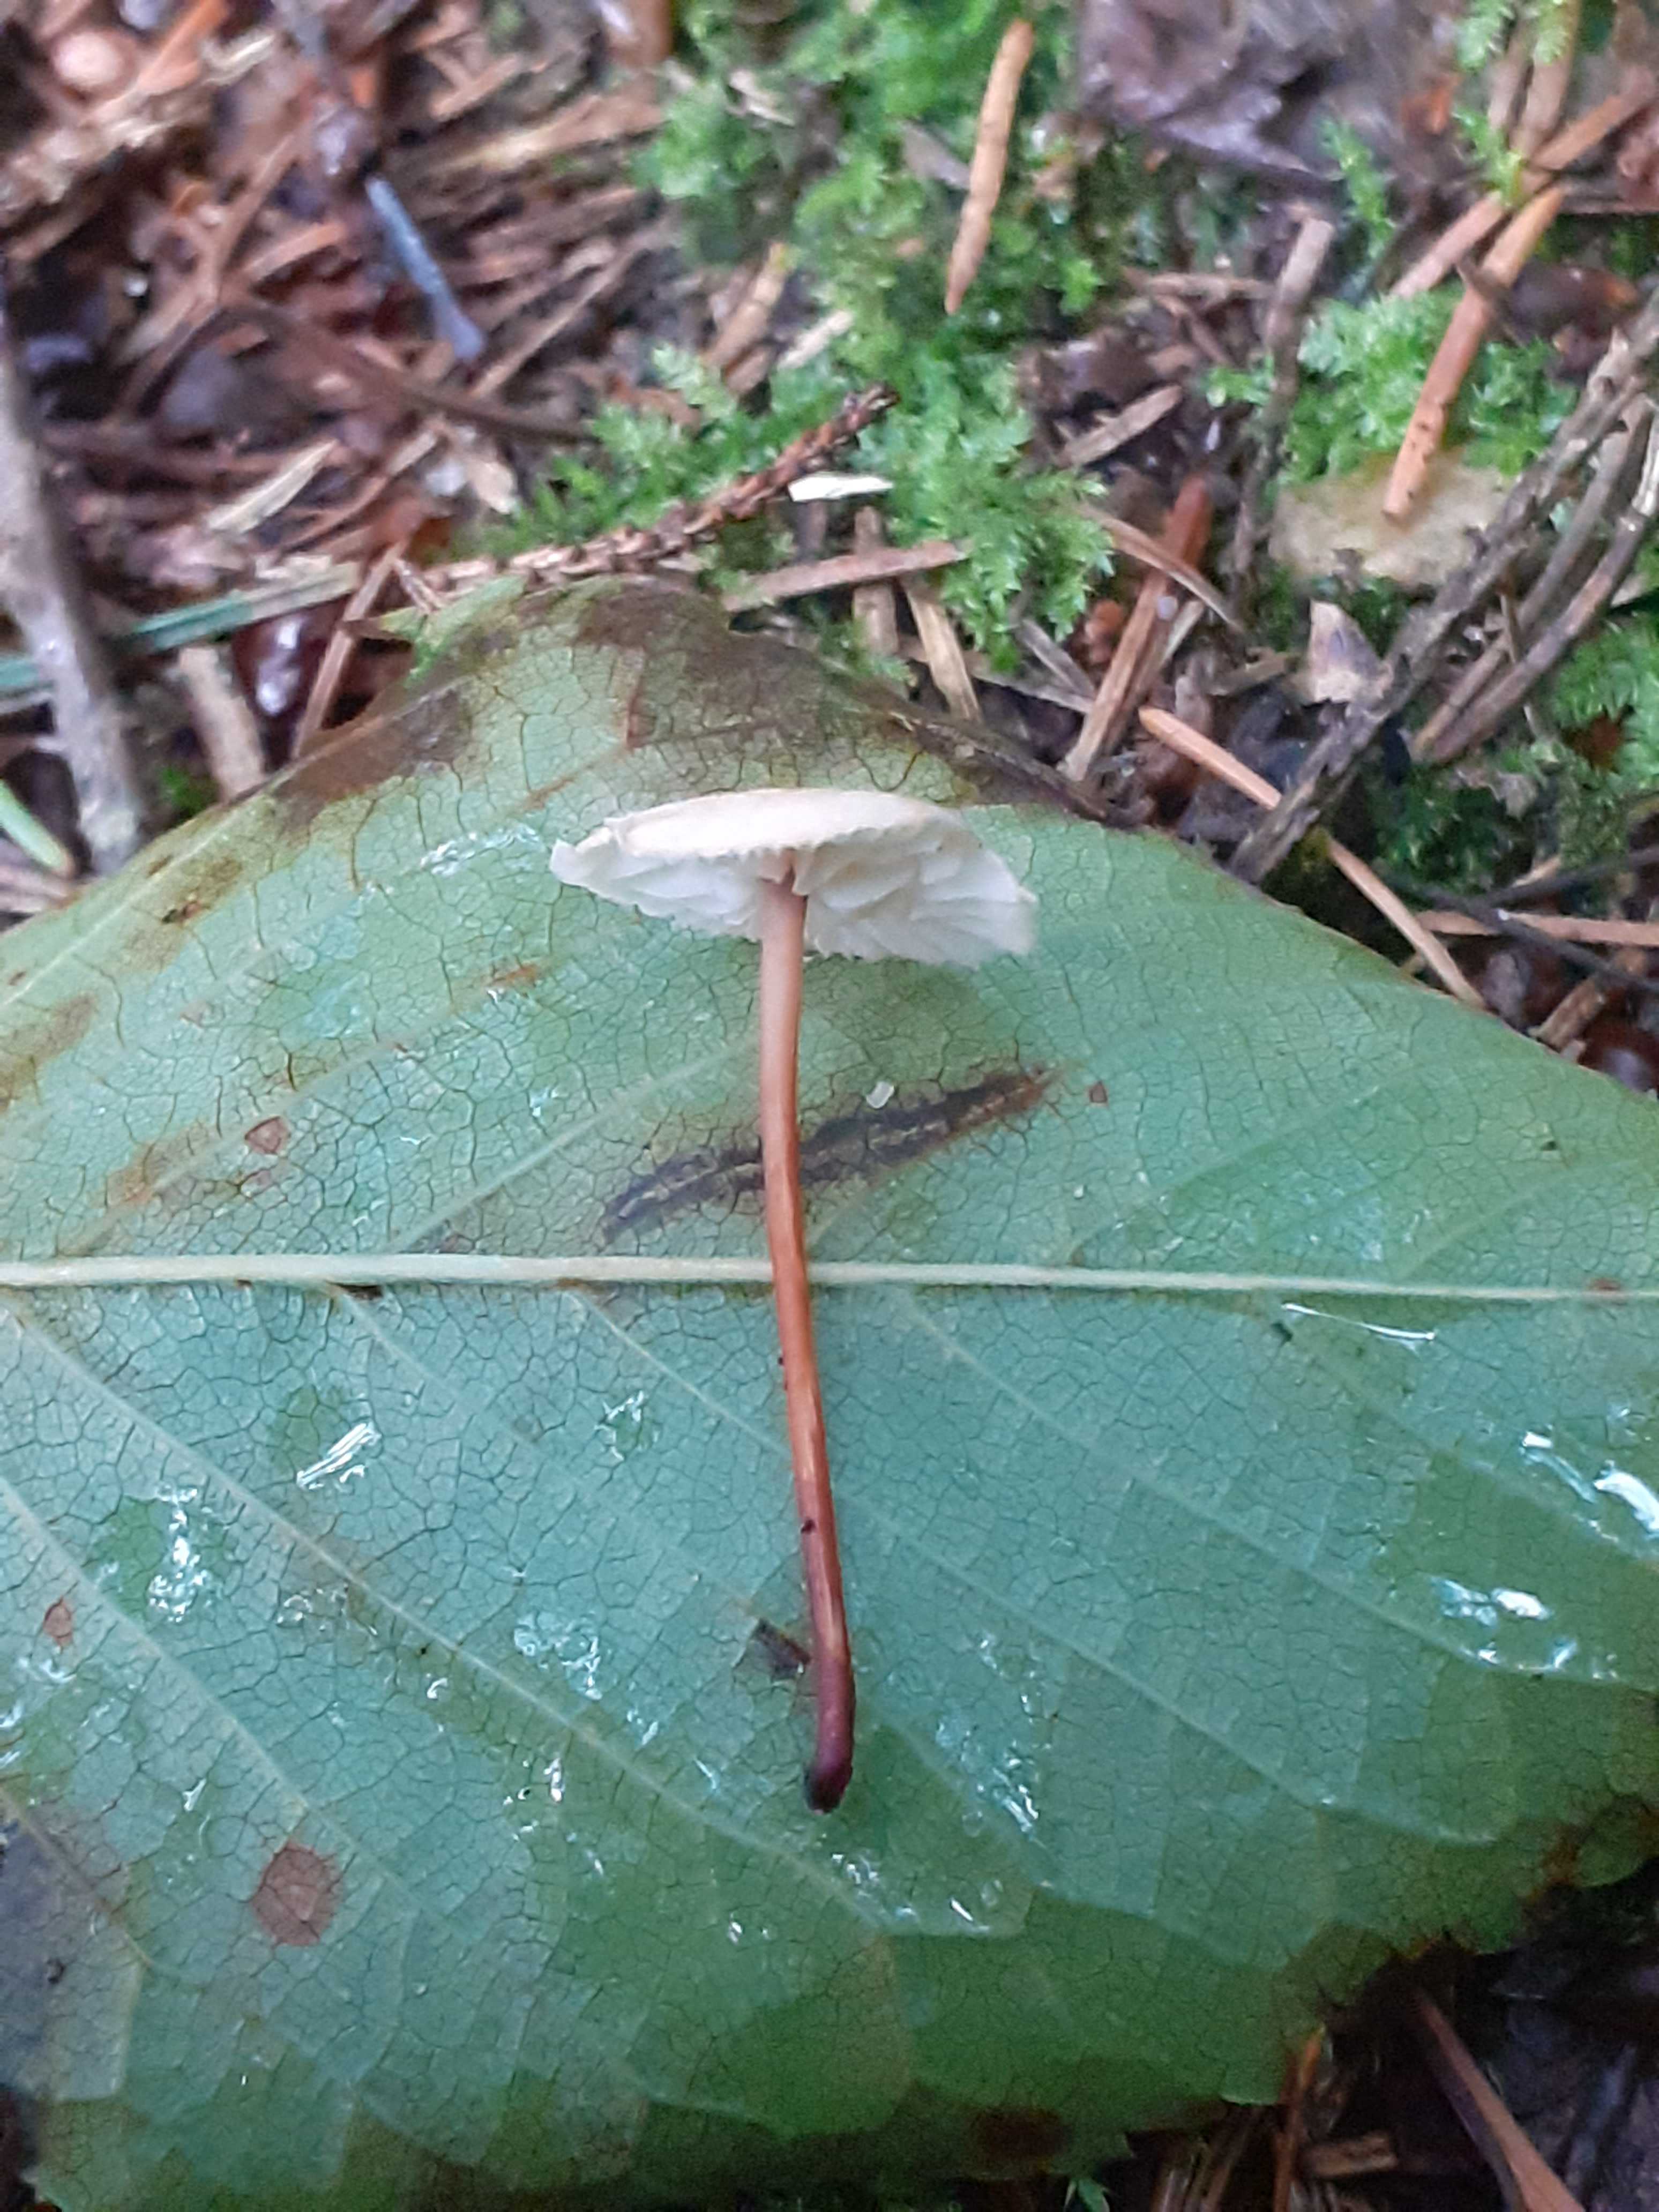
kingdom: Fungi
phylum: Basidiomycota
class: Agaricomycetes
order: Agaricales
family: Omphalotaceae
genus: Mycetinis
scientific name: Mycetinis scorodonius
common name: lille løghat
